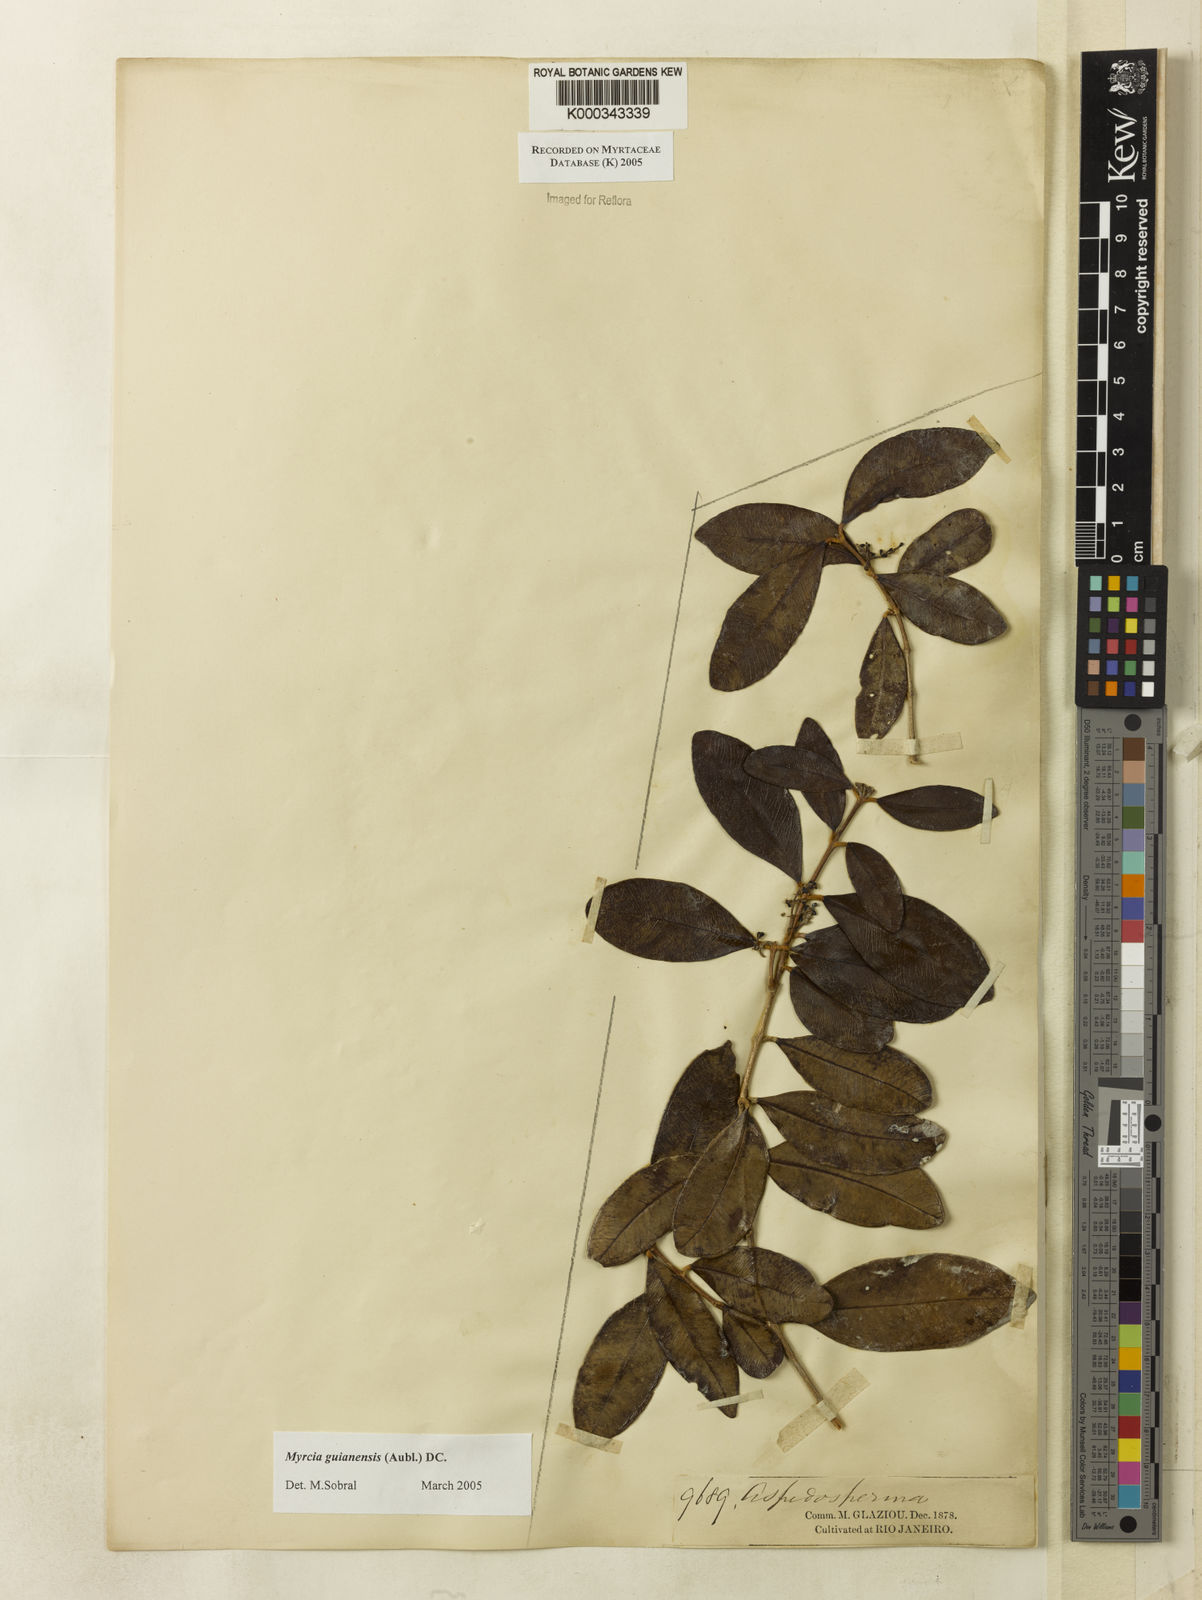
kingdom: Plantae
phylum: Tracheophyta
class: Magnoliopsida
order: Myrtales
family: Myrtaceae
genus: Myrcia
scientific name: Myrcia guianensis
